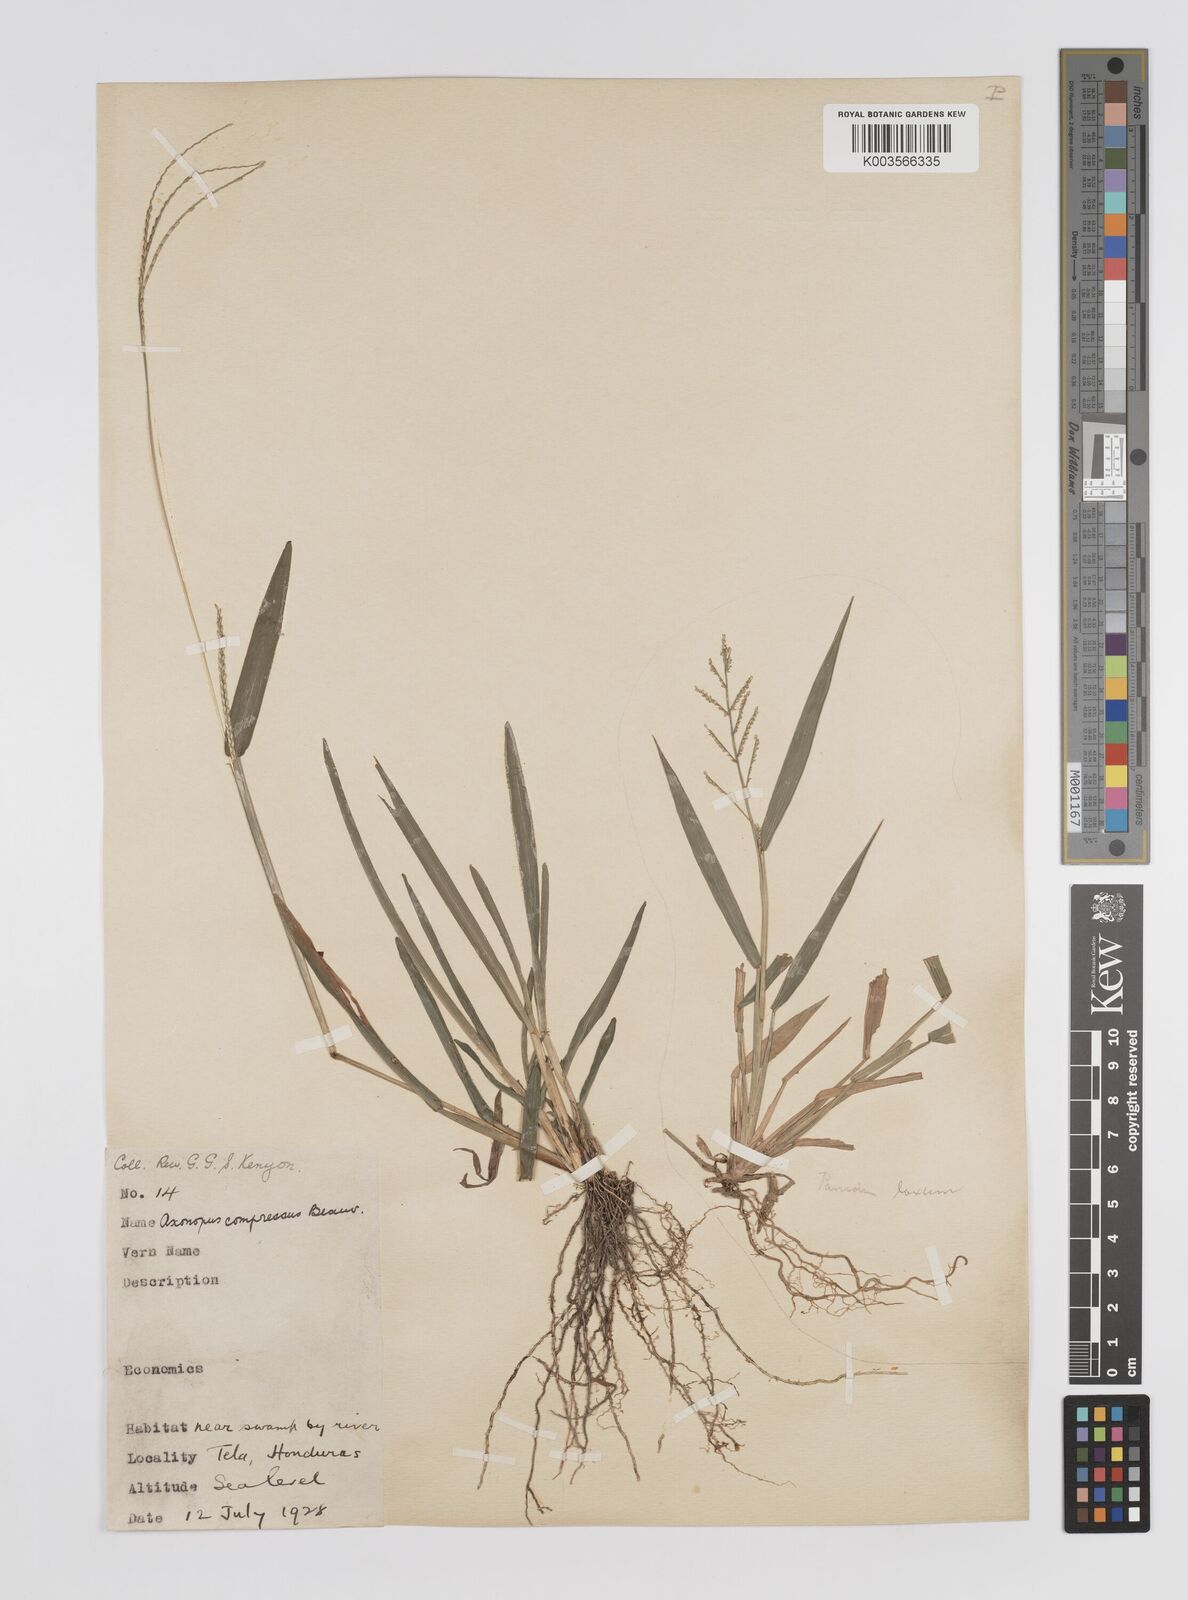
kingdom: Plantae
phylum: Tracheophyta
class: Liliopsida
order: Poales
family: Poaceae
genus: Axonopus
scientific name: Axonopus compressus
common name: American carpet grass
